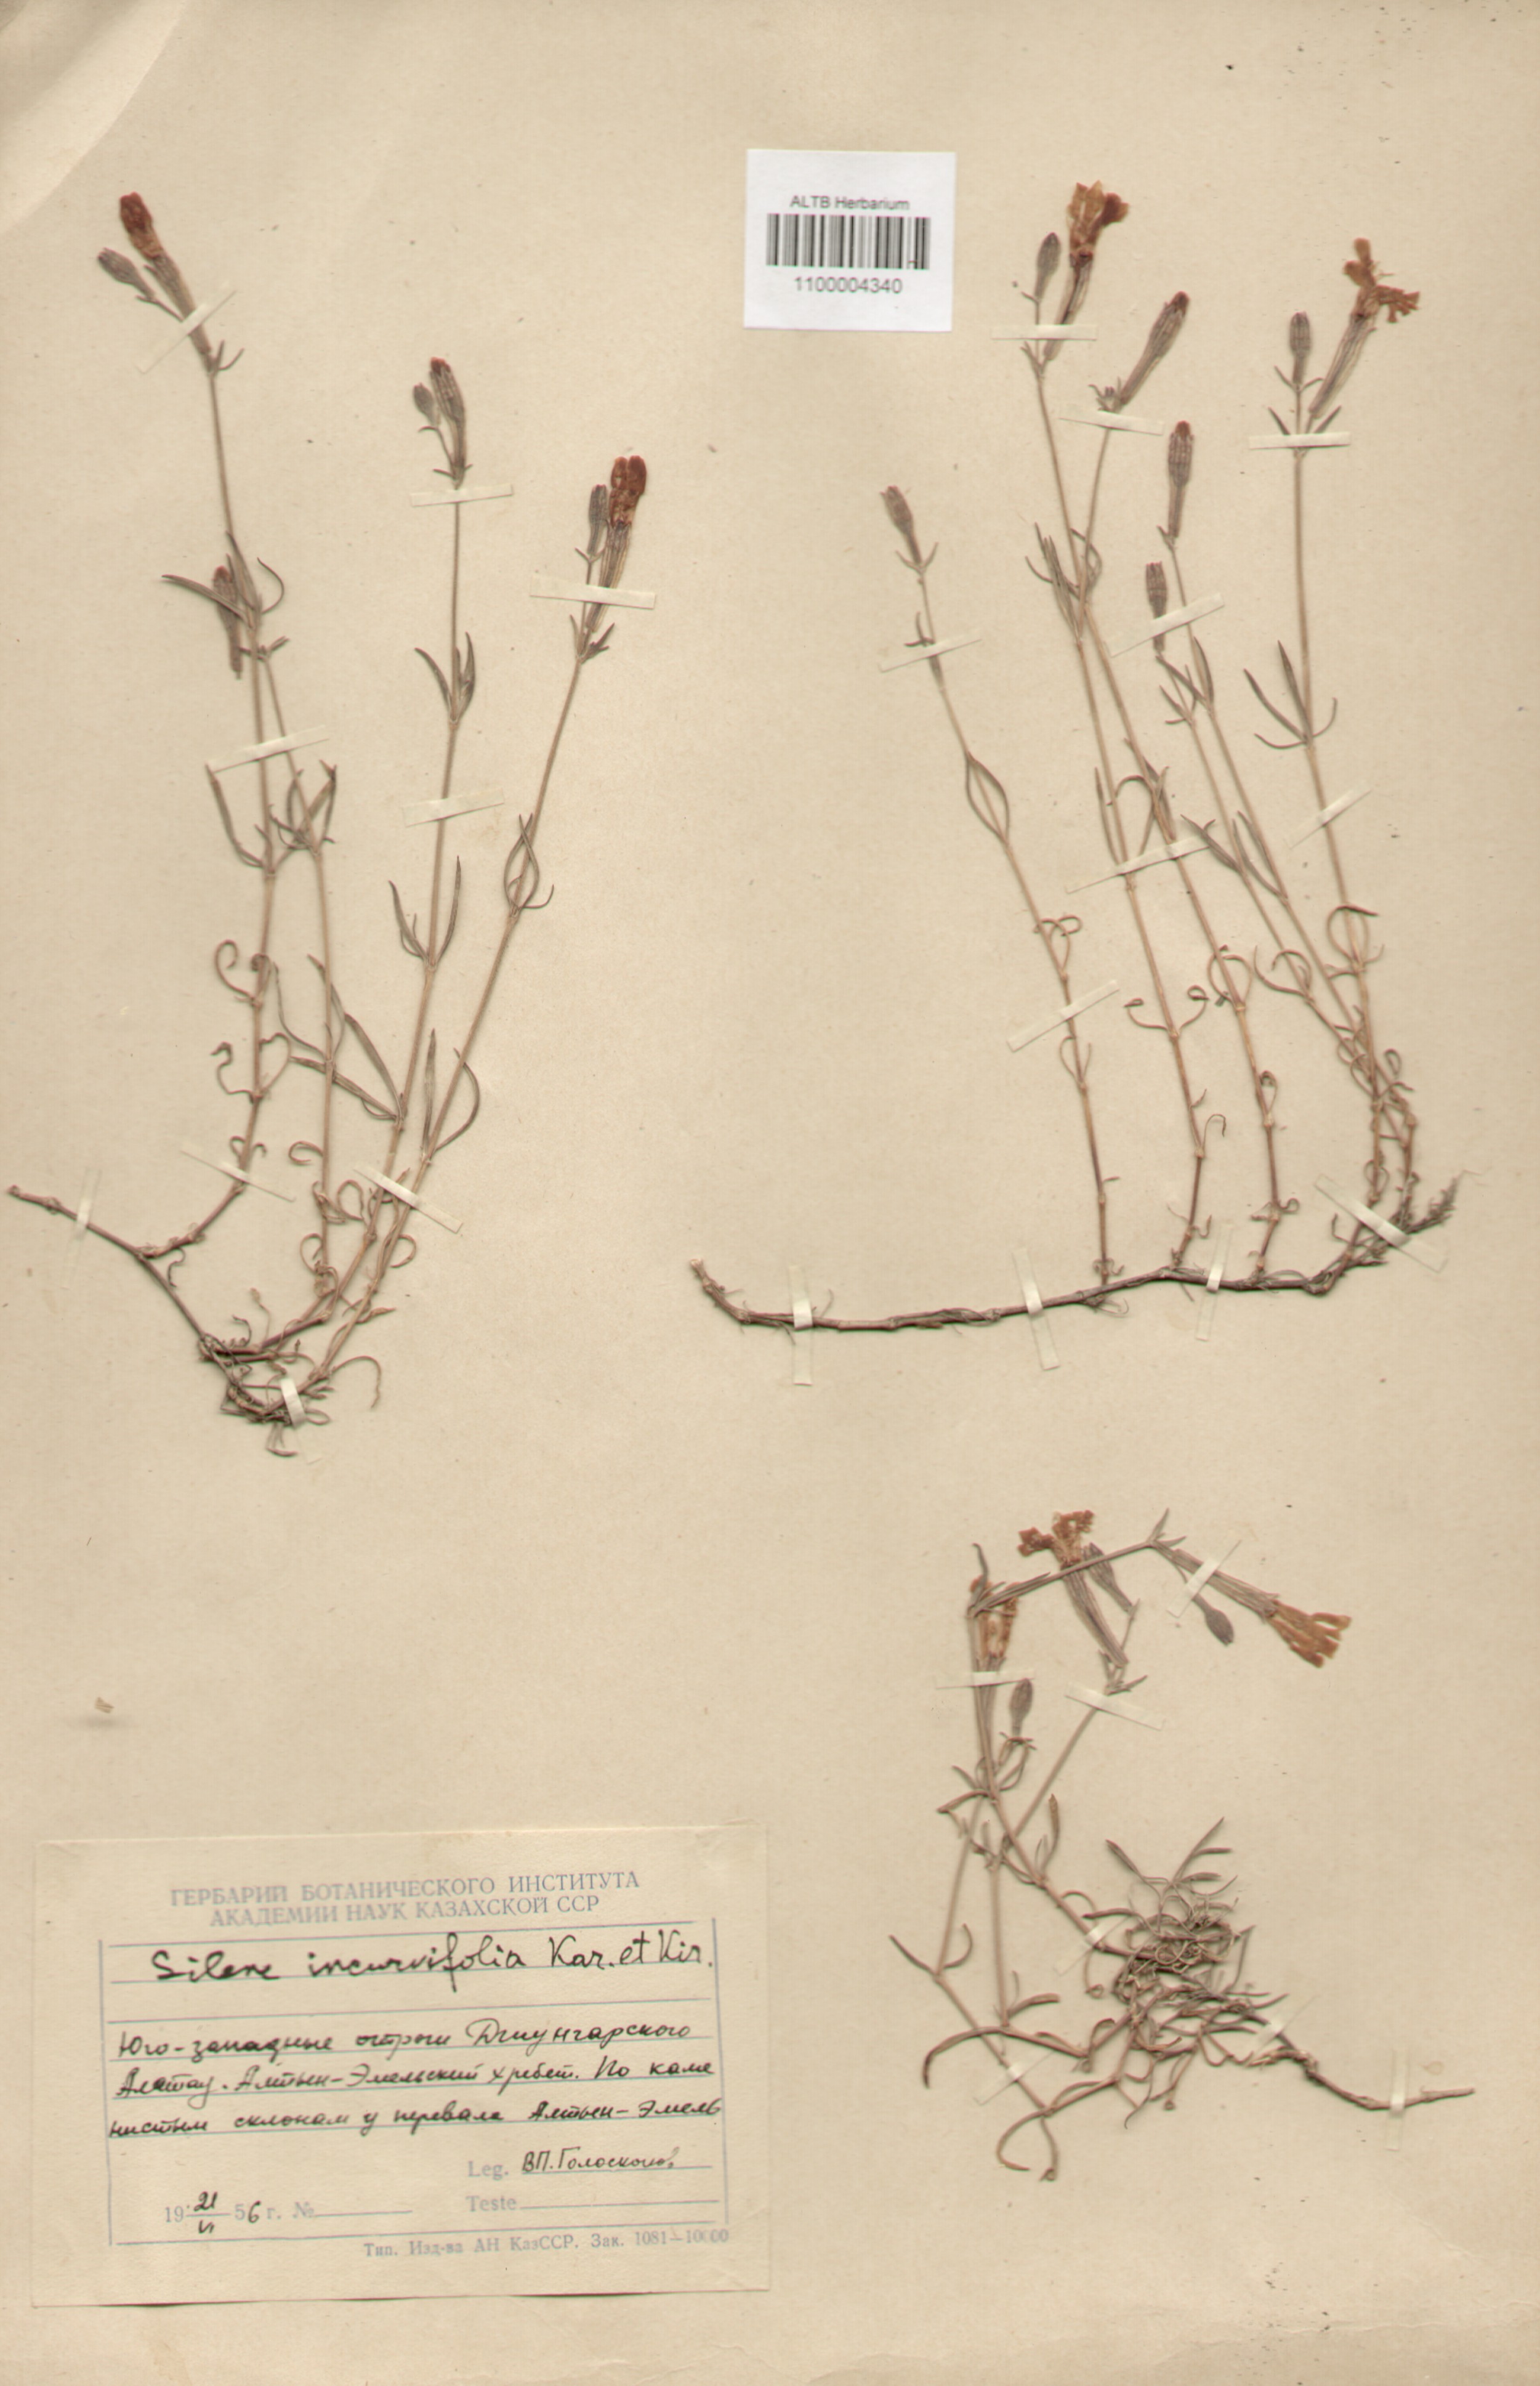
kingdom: Plantae
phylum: Tracheophyta
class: Magnoliopsida
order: Caryophyllales
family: Caryophyllaceae
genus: Silene
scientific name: Silene incurvifolia
